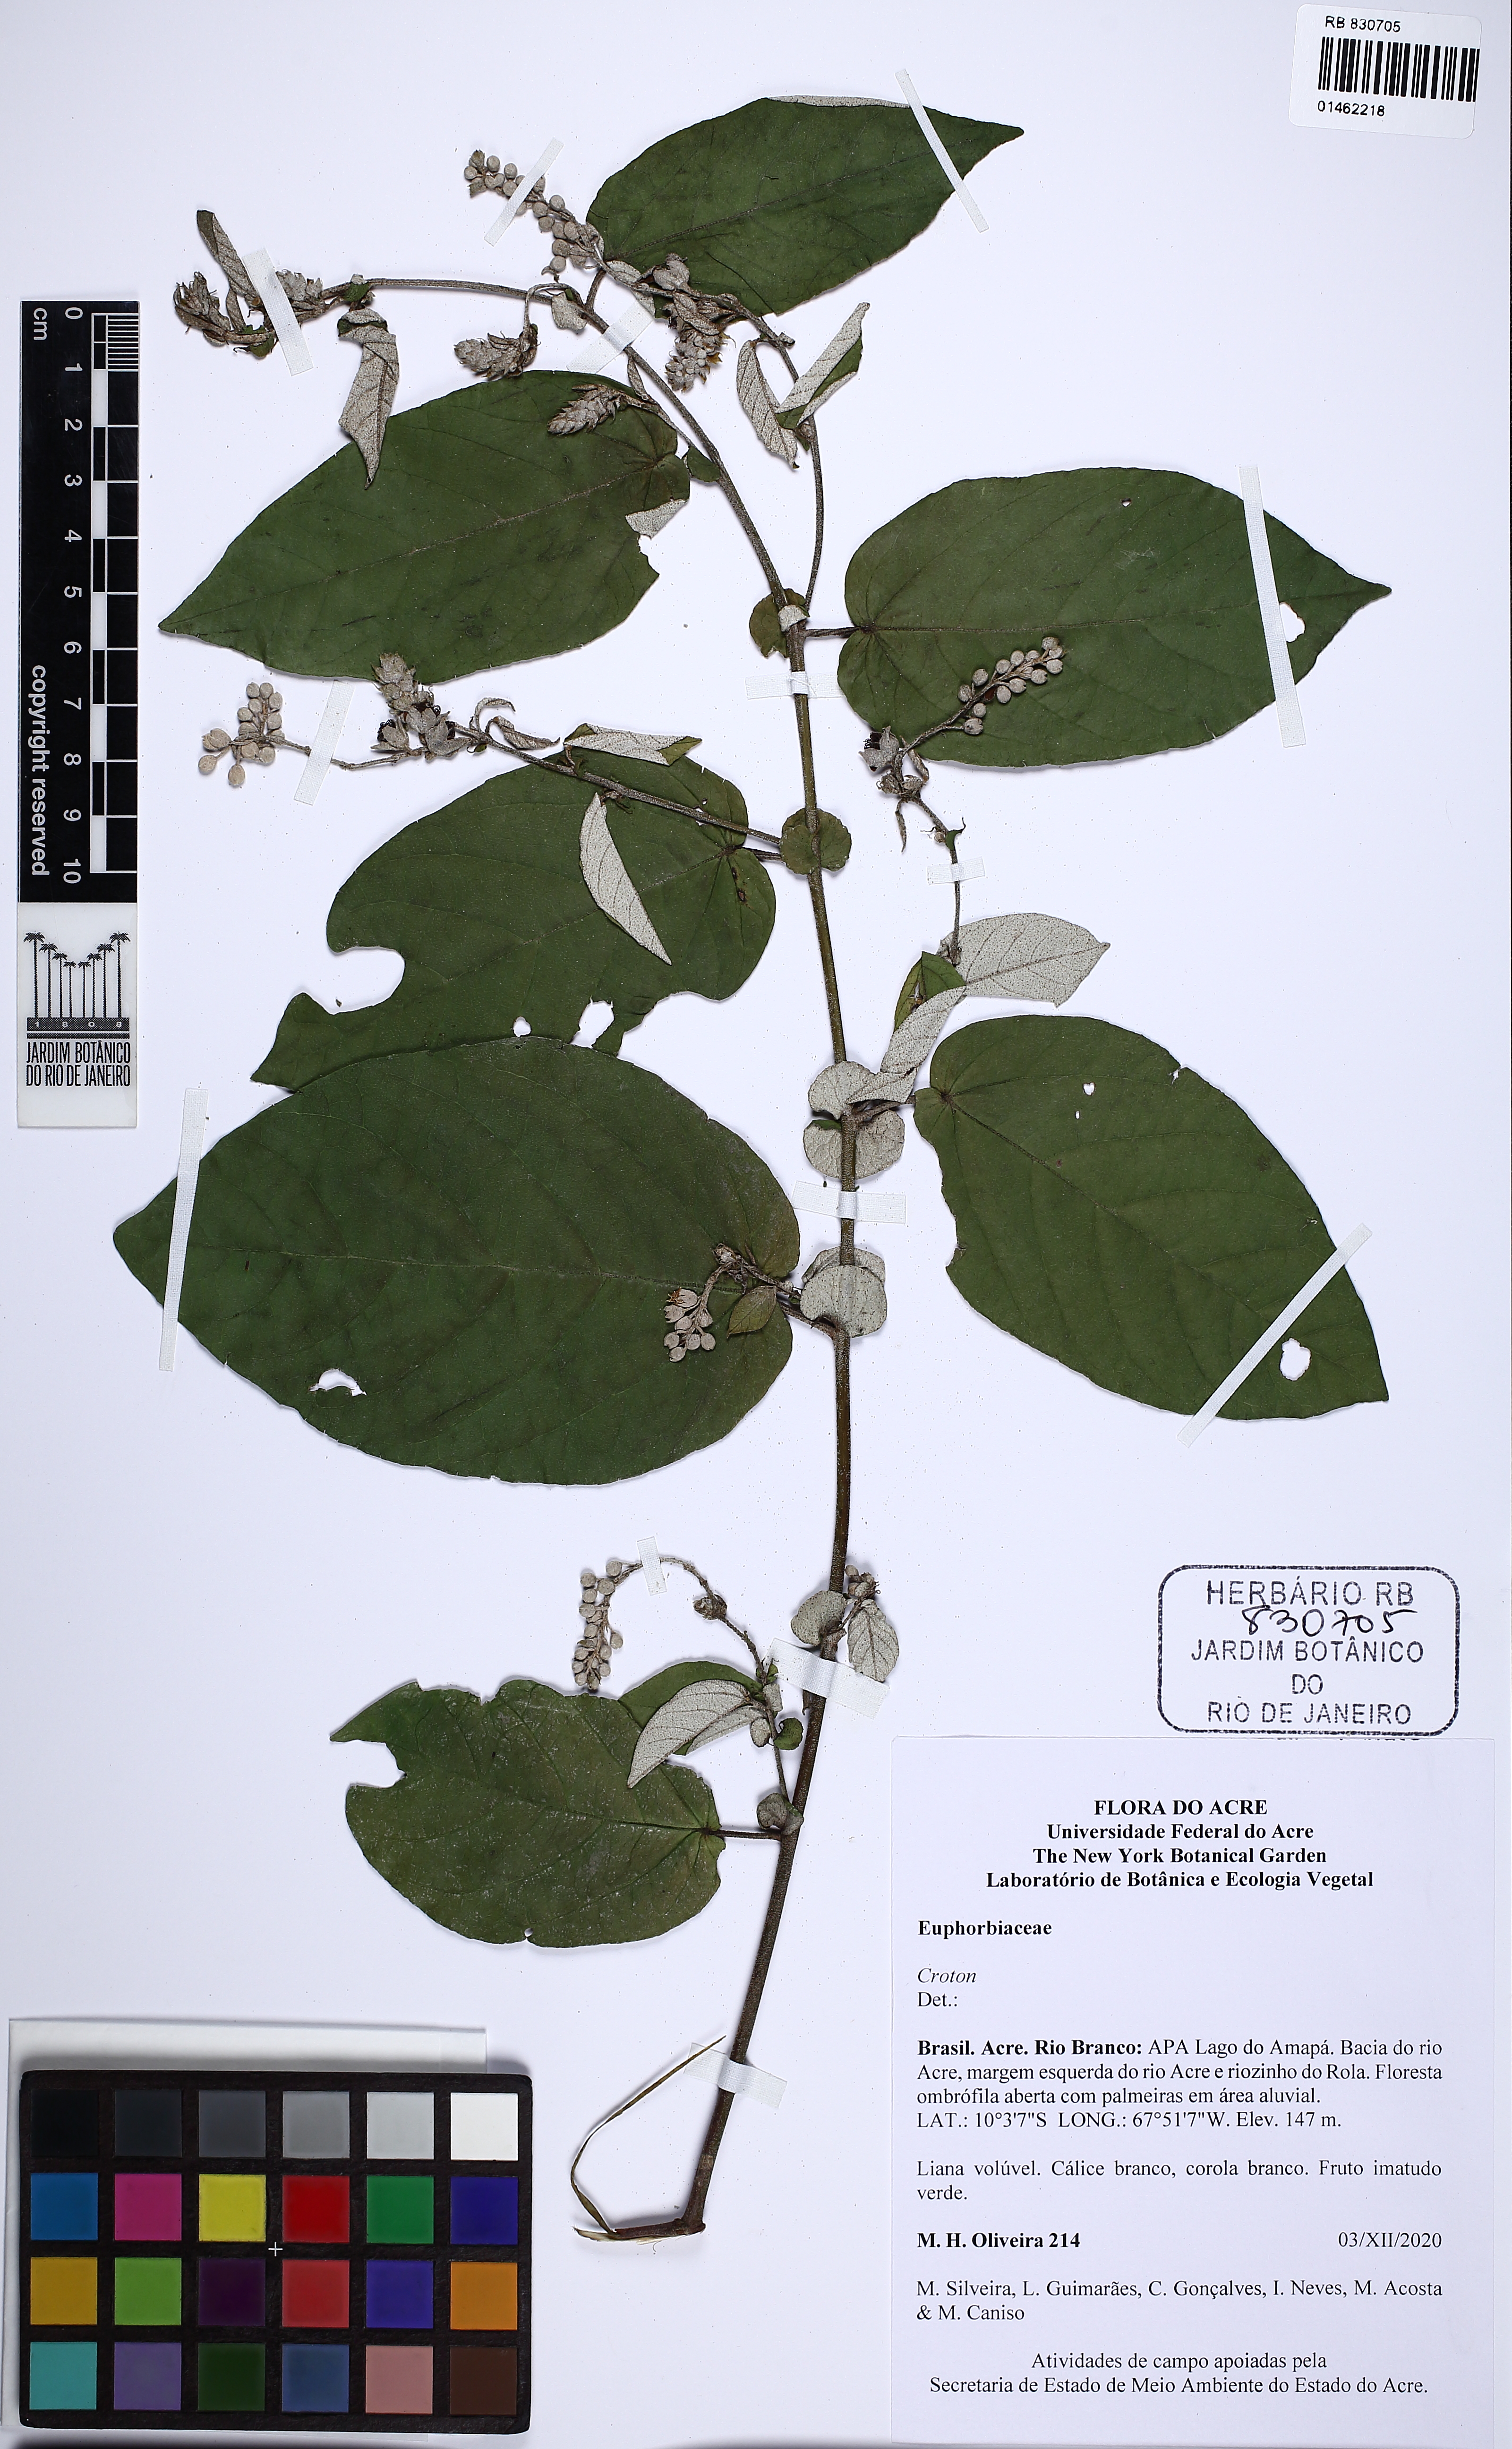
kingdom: Plantae
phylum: Tracheophyta
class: Magnoliopsida
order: Malpighiales
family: Euphorbiaceae
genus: Croton
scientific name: Croton perstipulatus
